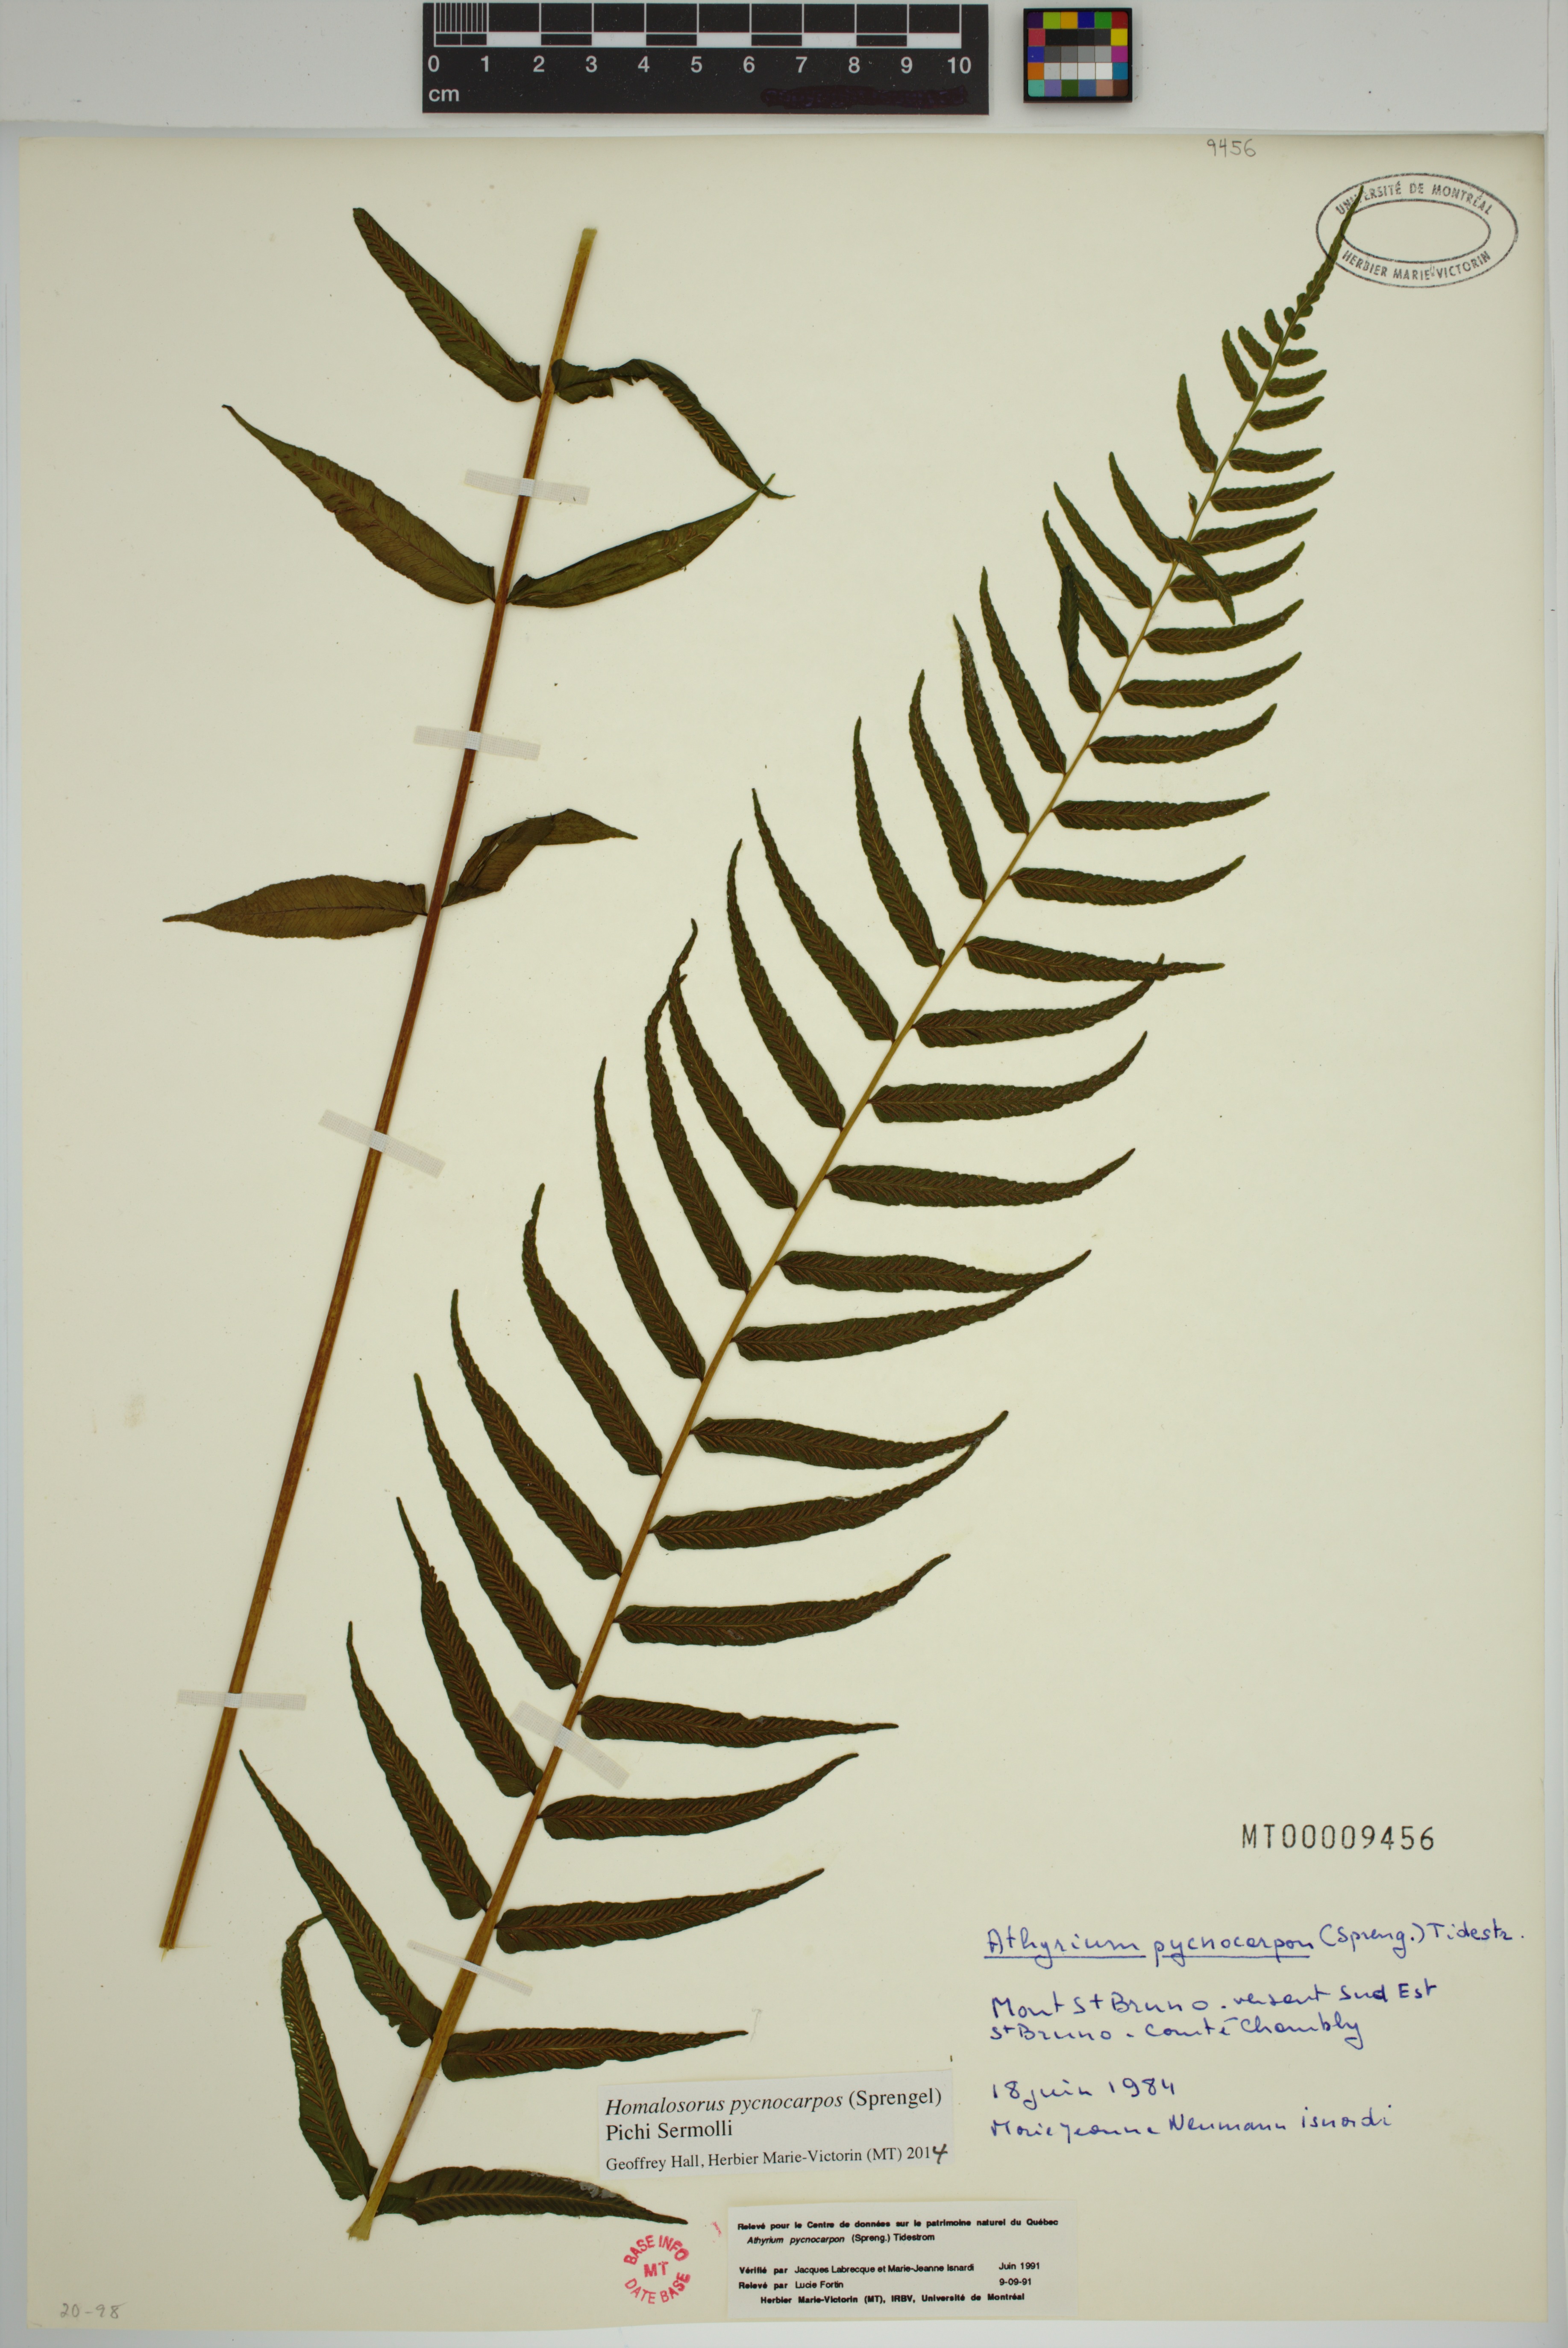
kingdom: Plantae
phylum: Tracheophyta
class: Polypodiopsida
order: Polypodiales
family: Diplaziopsidaceae
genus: Homalosorus
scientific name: Homalosorus pycnocarpos
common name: Glade fern
